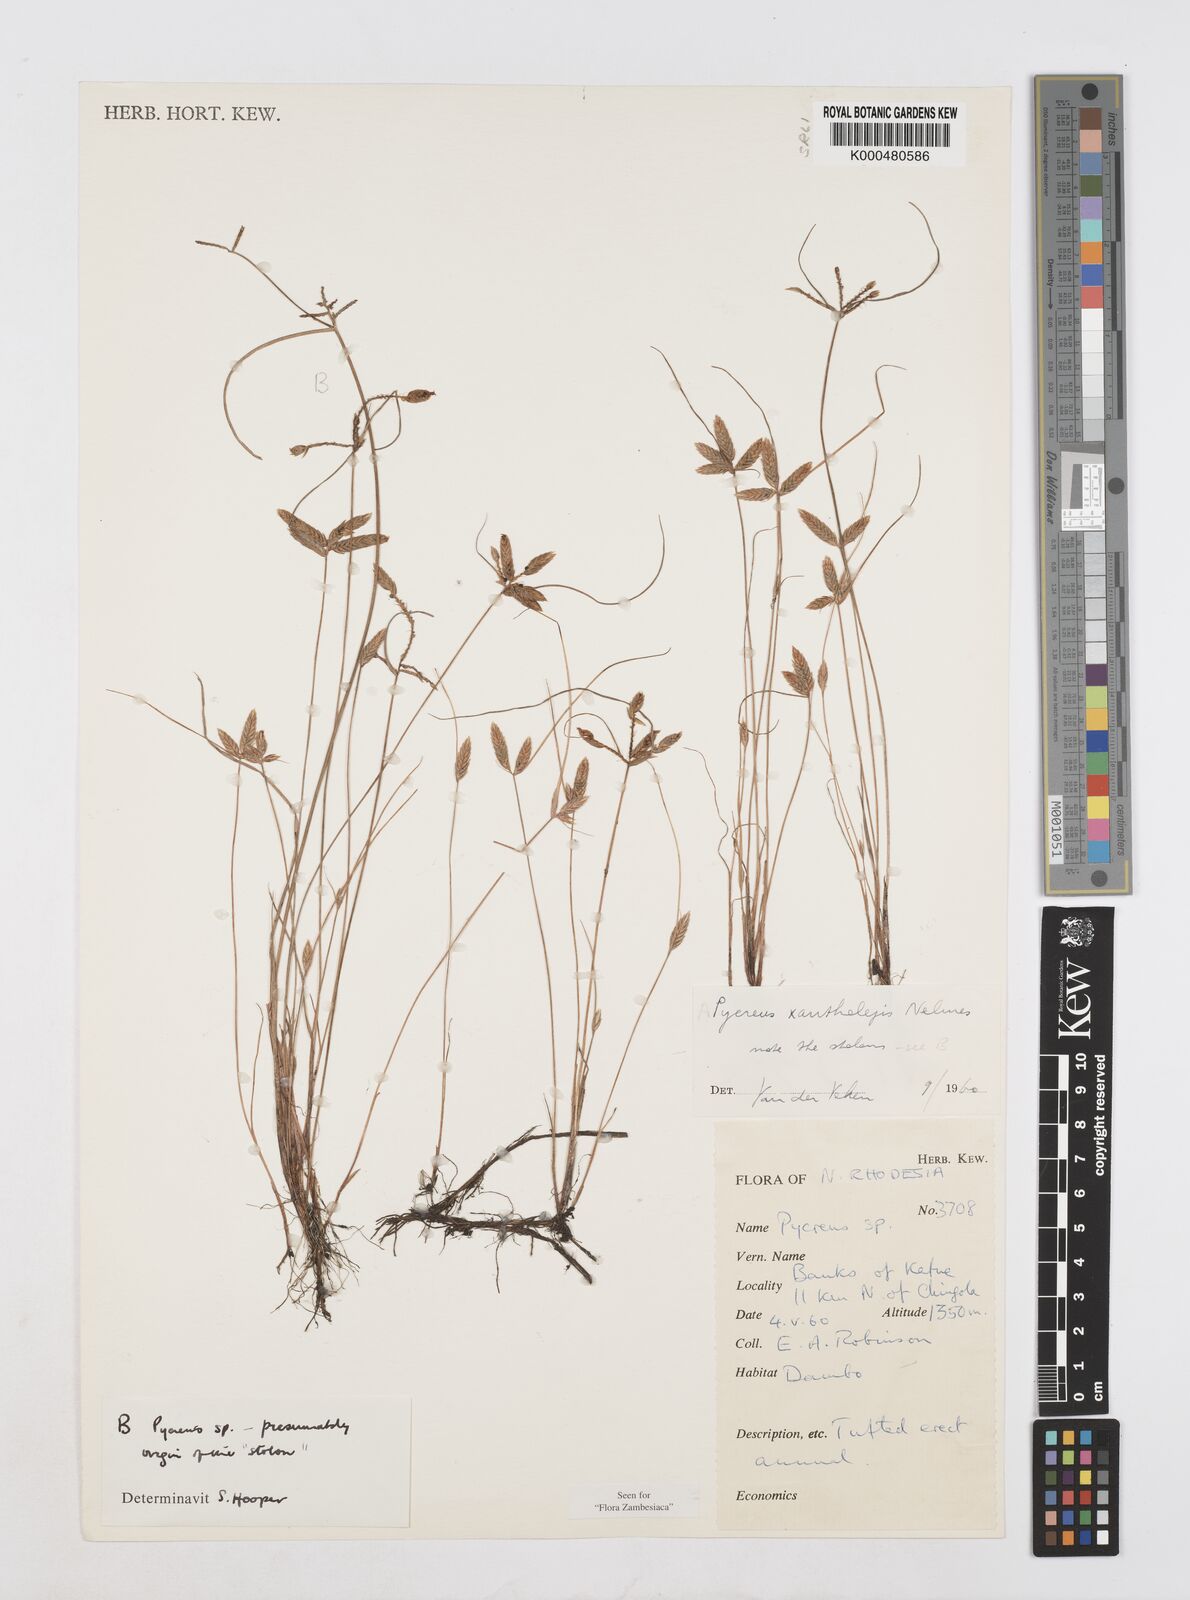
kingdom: Plantae
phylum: Tracheophyta
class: Liliopsida
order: Poales
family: Cyperaceae
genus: Cyperus
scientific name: Cyperus xantholepis
